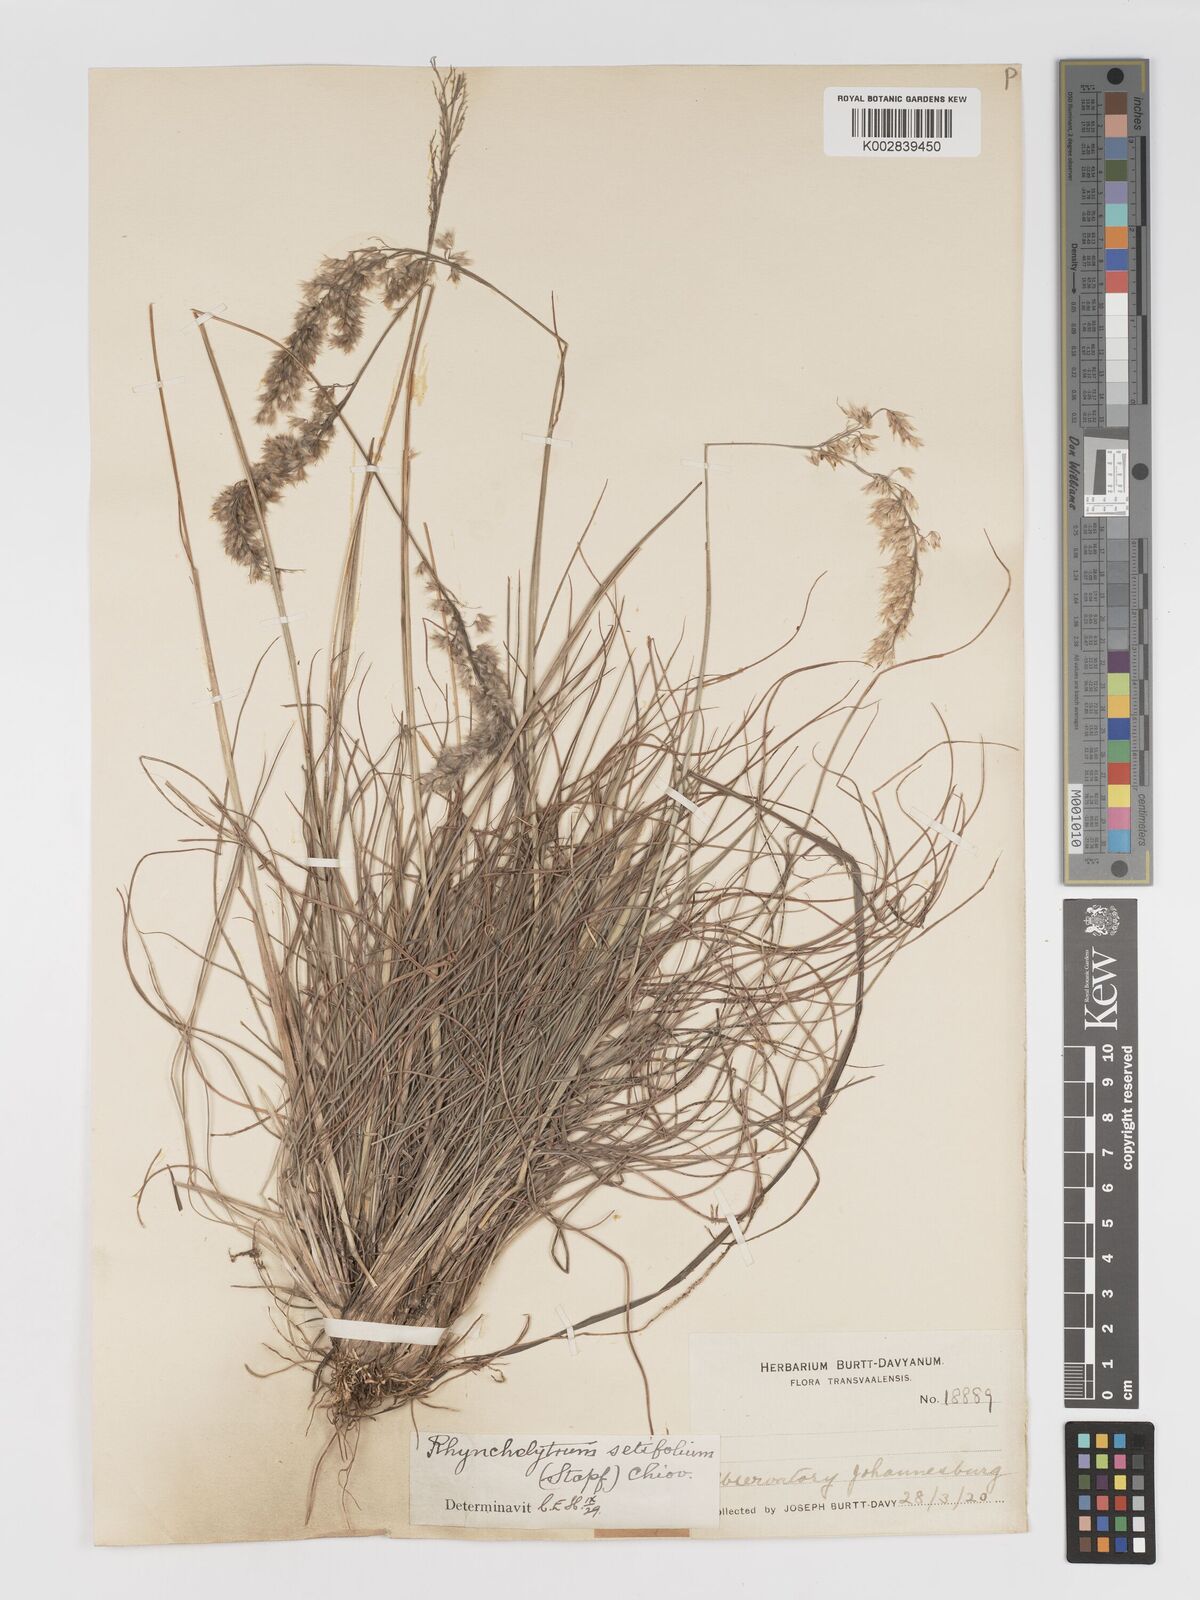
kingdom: Plantae
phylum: Tracheophyta
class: Liliopsida
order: Poales
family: Poaceae
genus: Melinis
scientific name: Melinis nerviglumis
